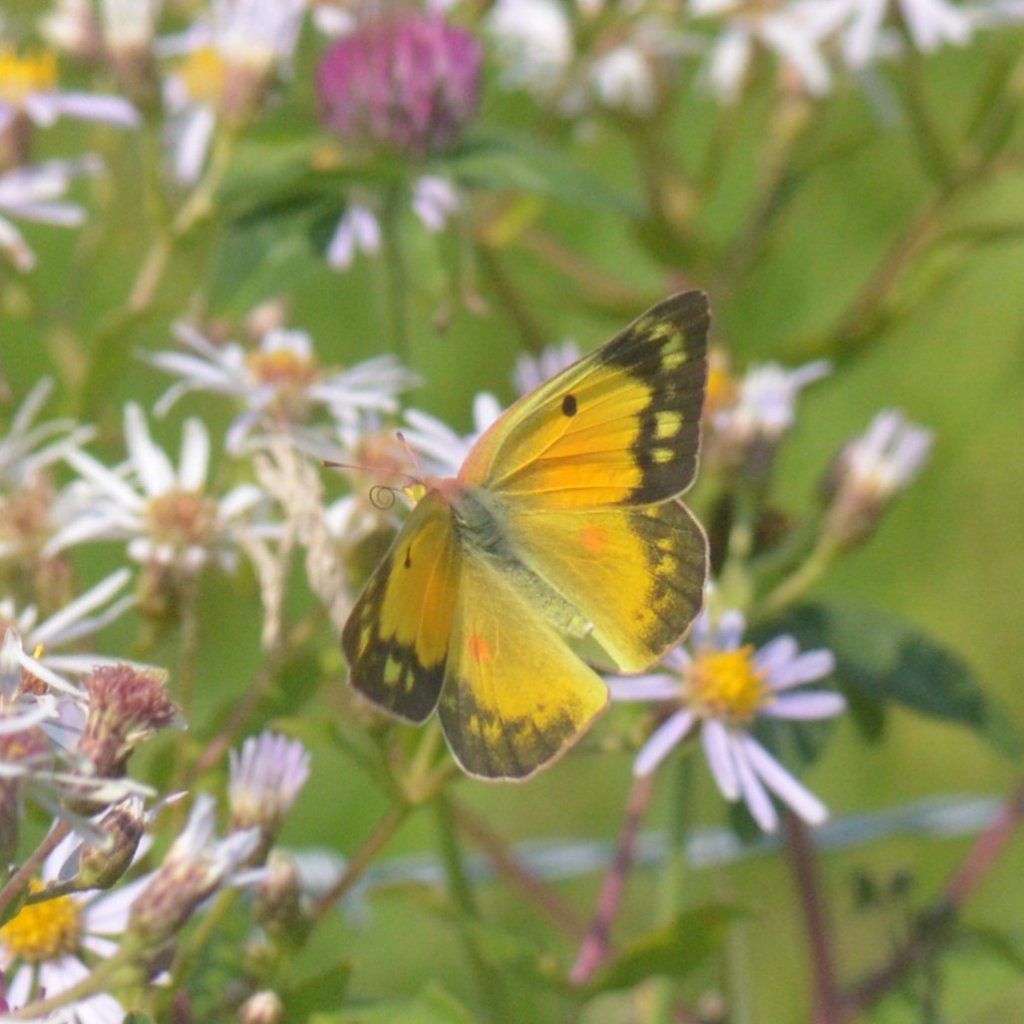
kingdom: Animalia
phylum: Arthropoda
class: Insecta
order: Lepidoptera
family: Pieridae
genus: Colias
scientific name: Colias eurytheme
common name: Orange Sulphur
